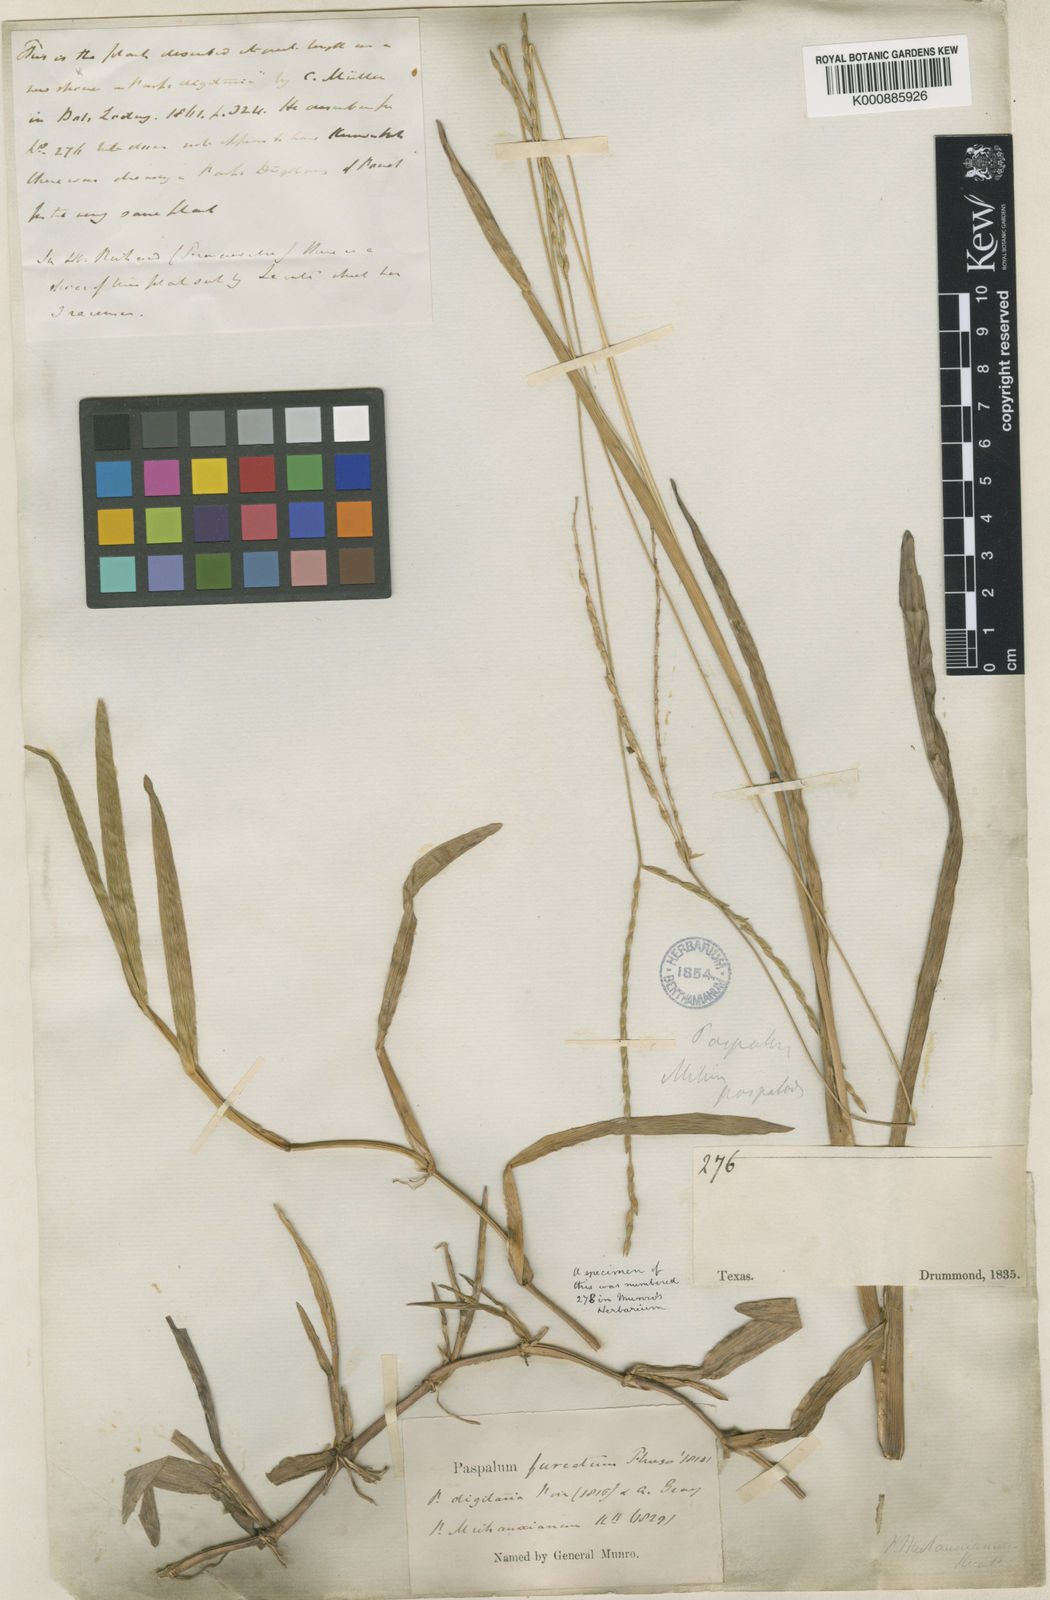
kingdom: Plantae
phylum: Tracheophyta
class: Liliopsida
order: Poales
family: Poaceae
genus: Axonopus
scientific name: Axonopus
